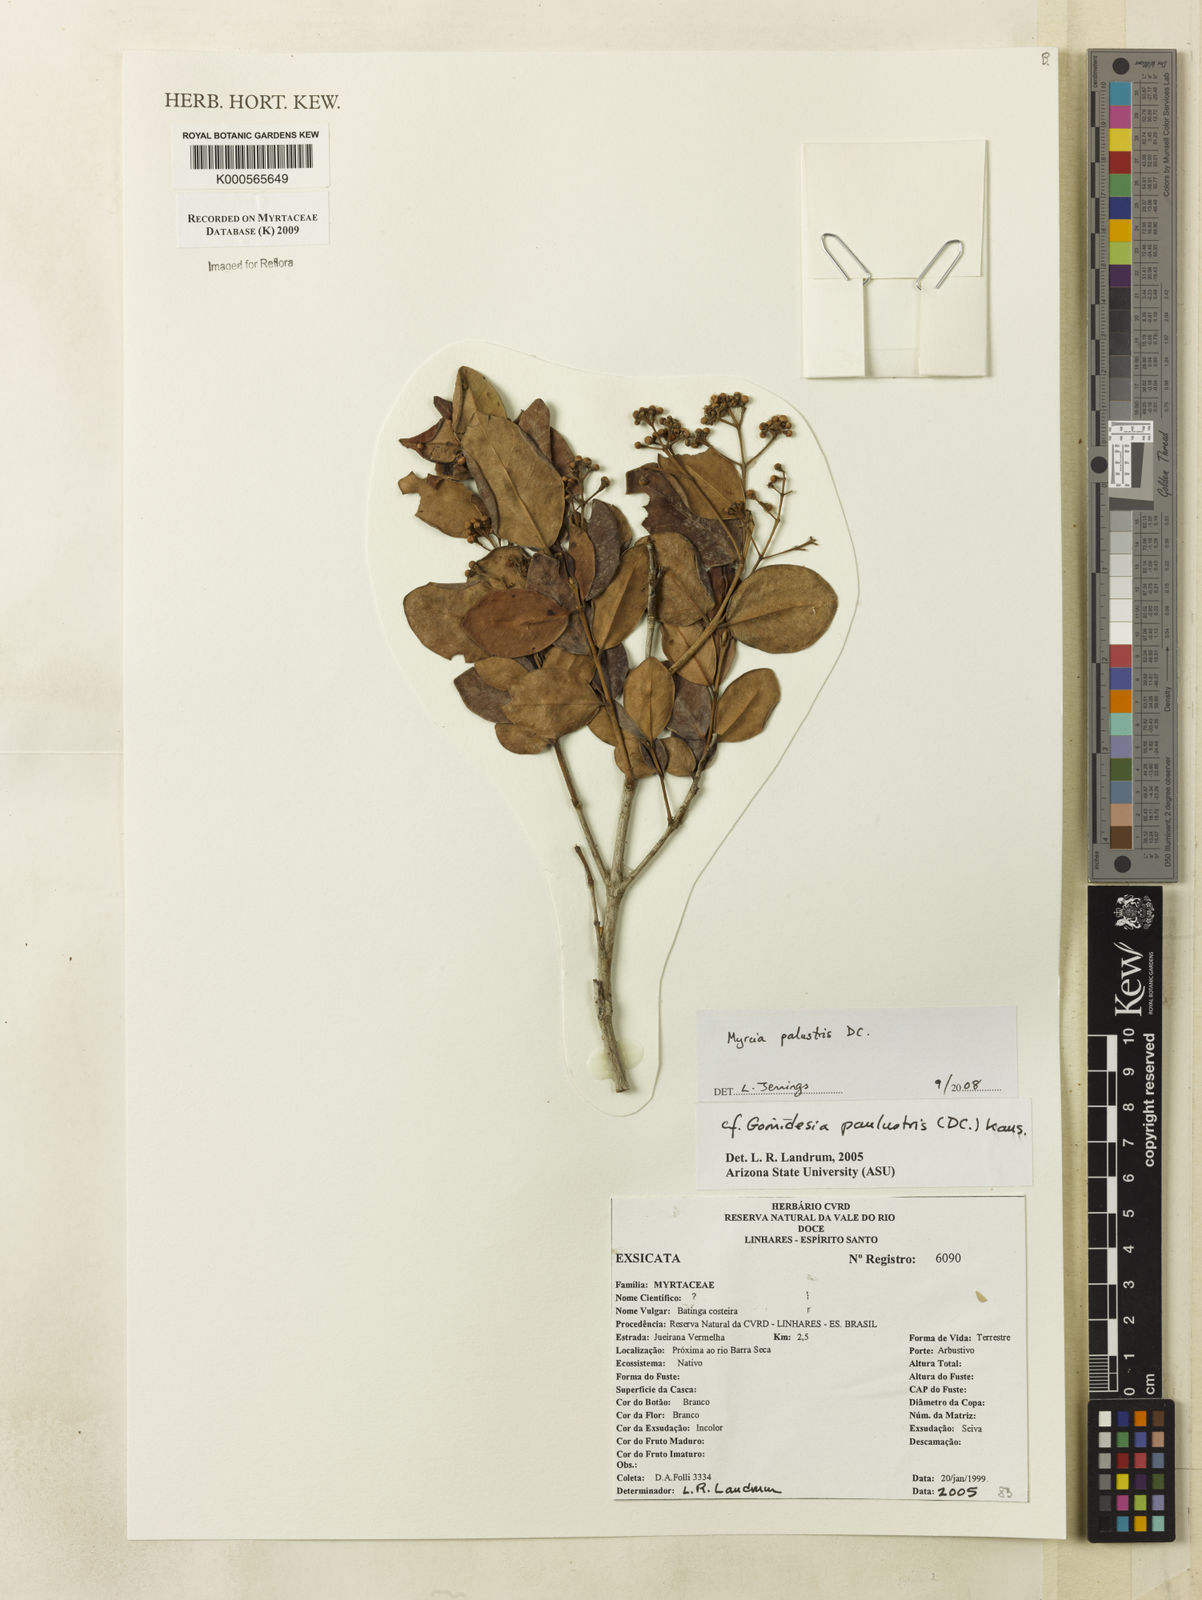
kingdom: Plantae
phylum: Tracheophyta
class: Magnoliopsida
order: Myrtales
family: Myrtaceae
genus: Myrcia
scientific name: Myrcia palustris
